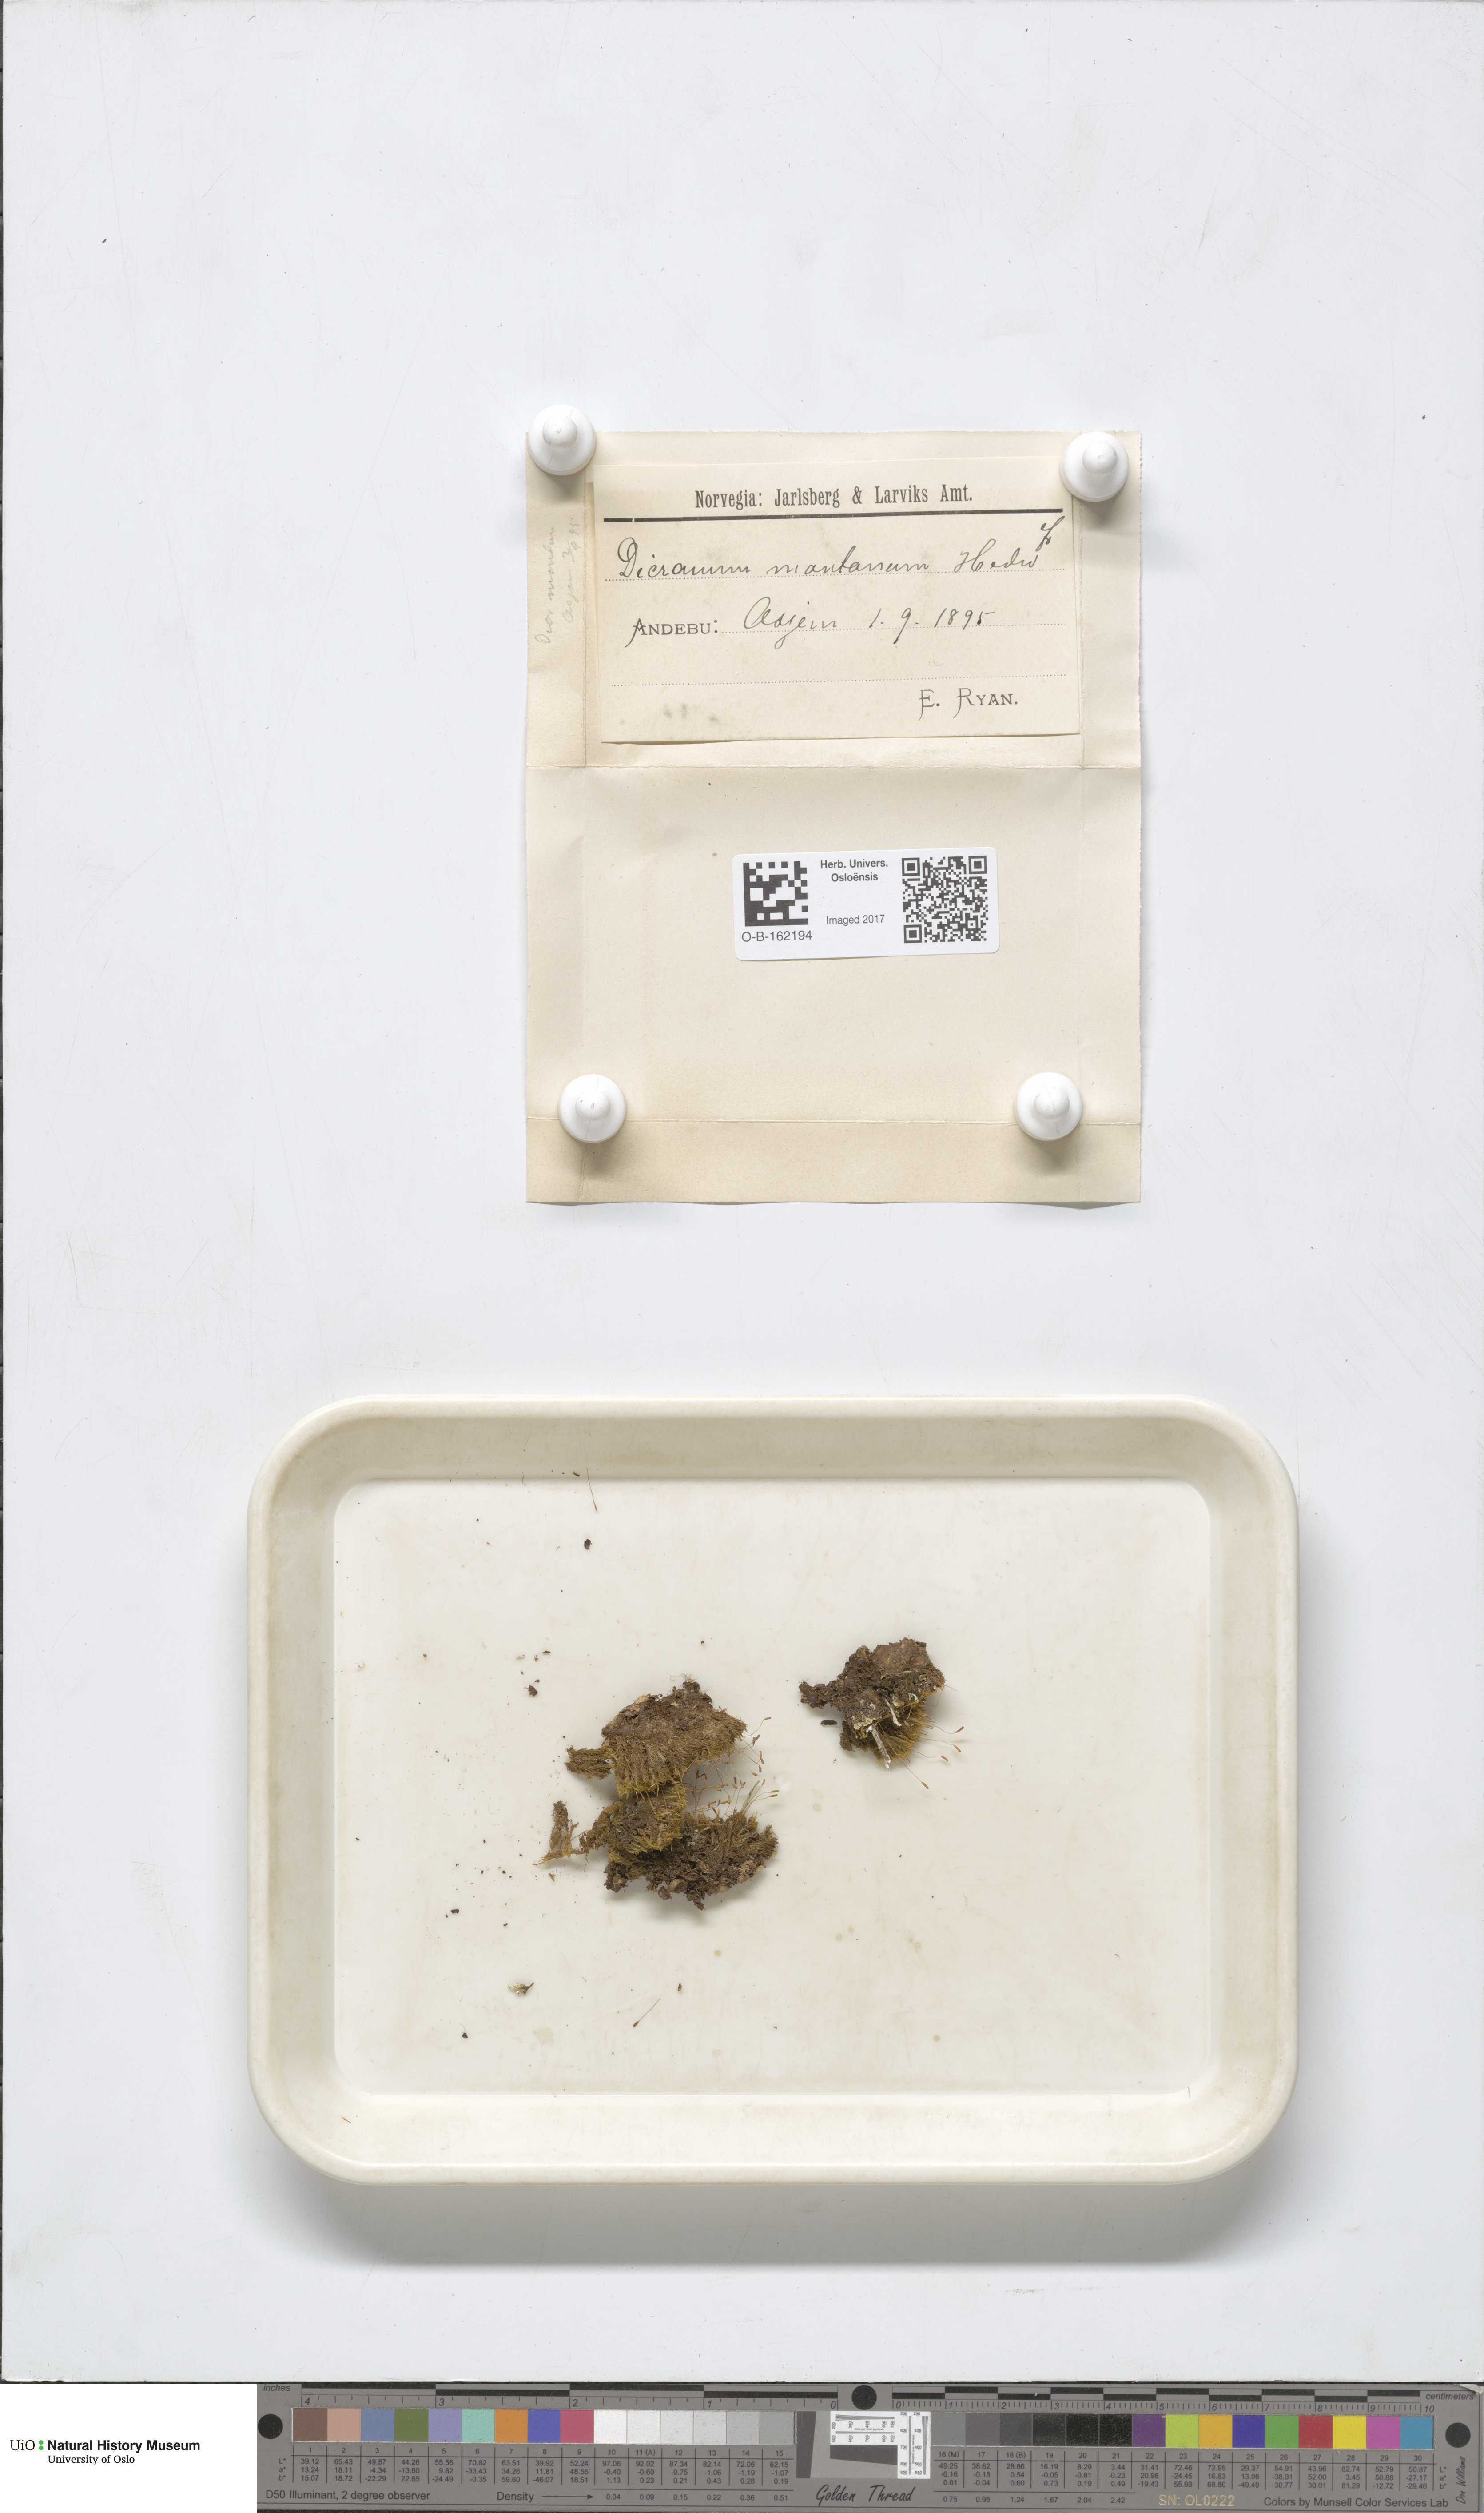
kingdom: Plantae
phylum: Bryophyta
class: Bryopsida
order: Dicranales
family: Dicranaceae
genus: Orthodicranum
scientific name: Orthodicranum montanum
